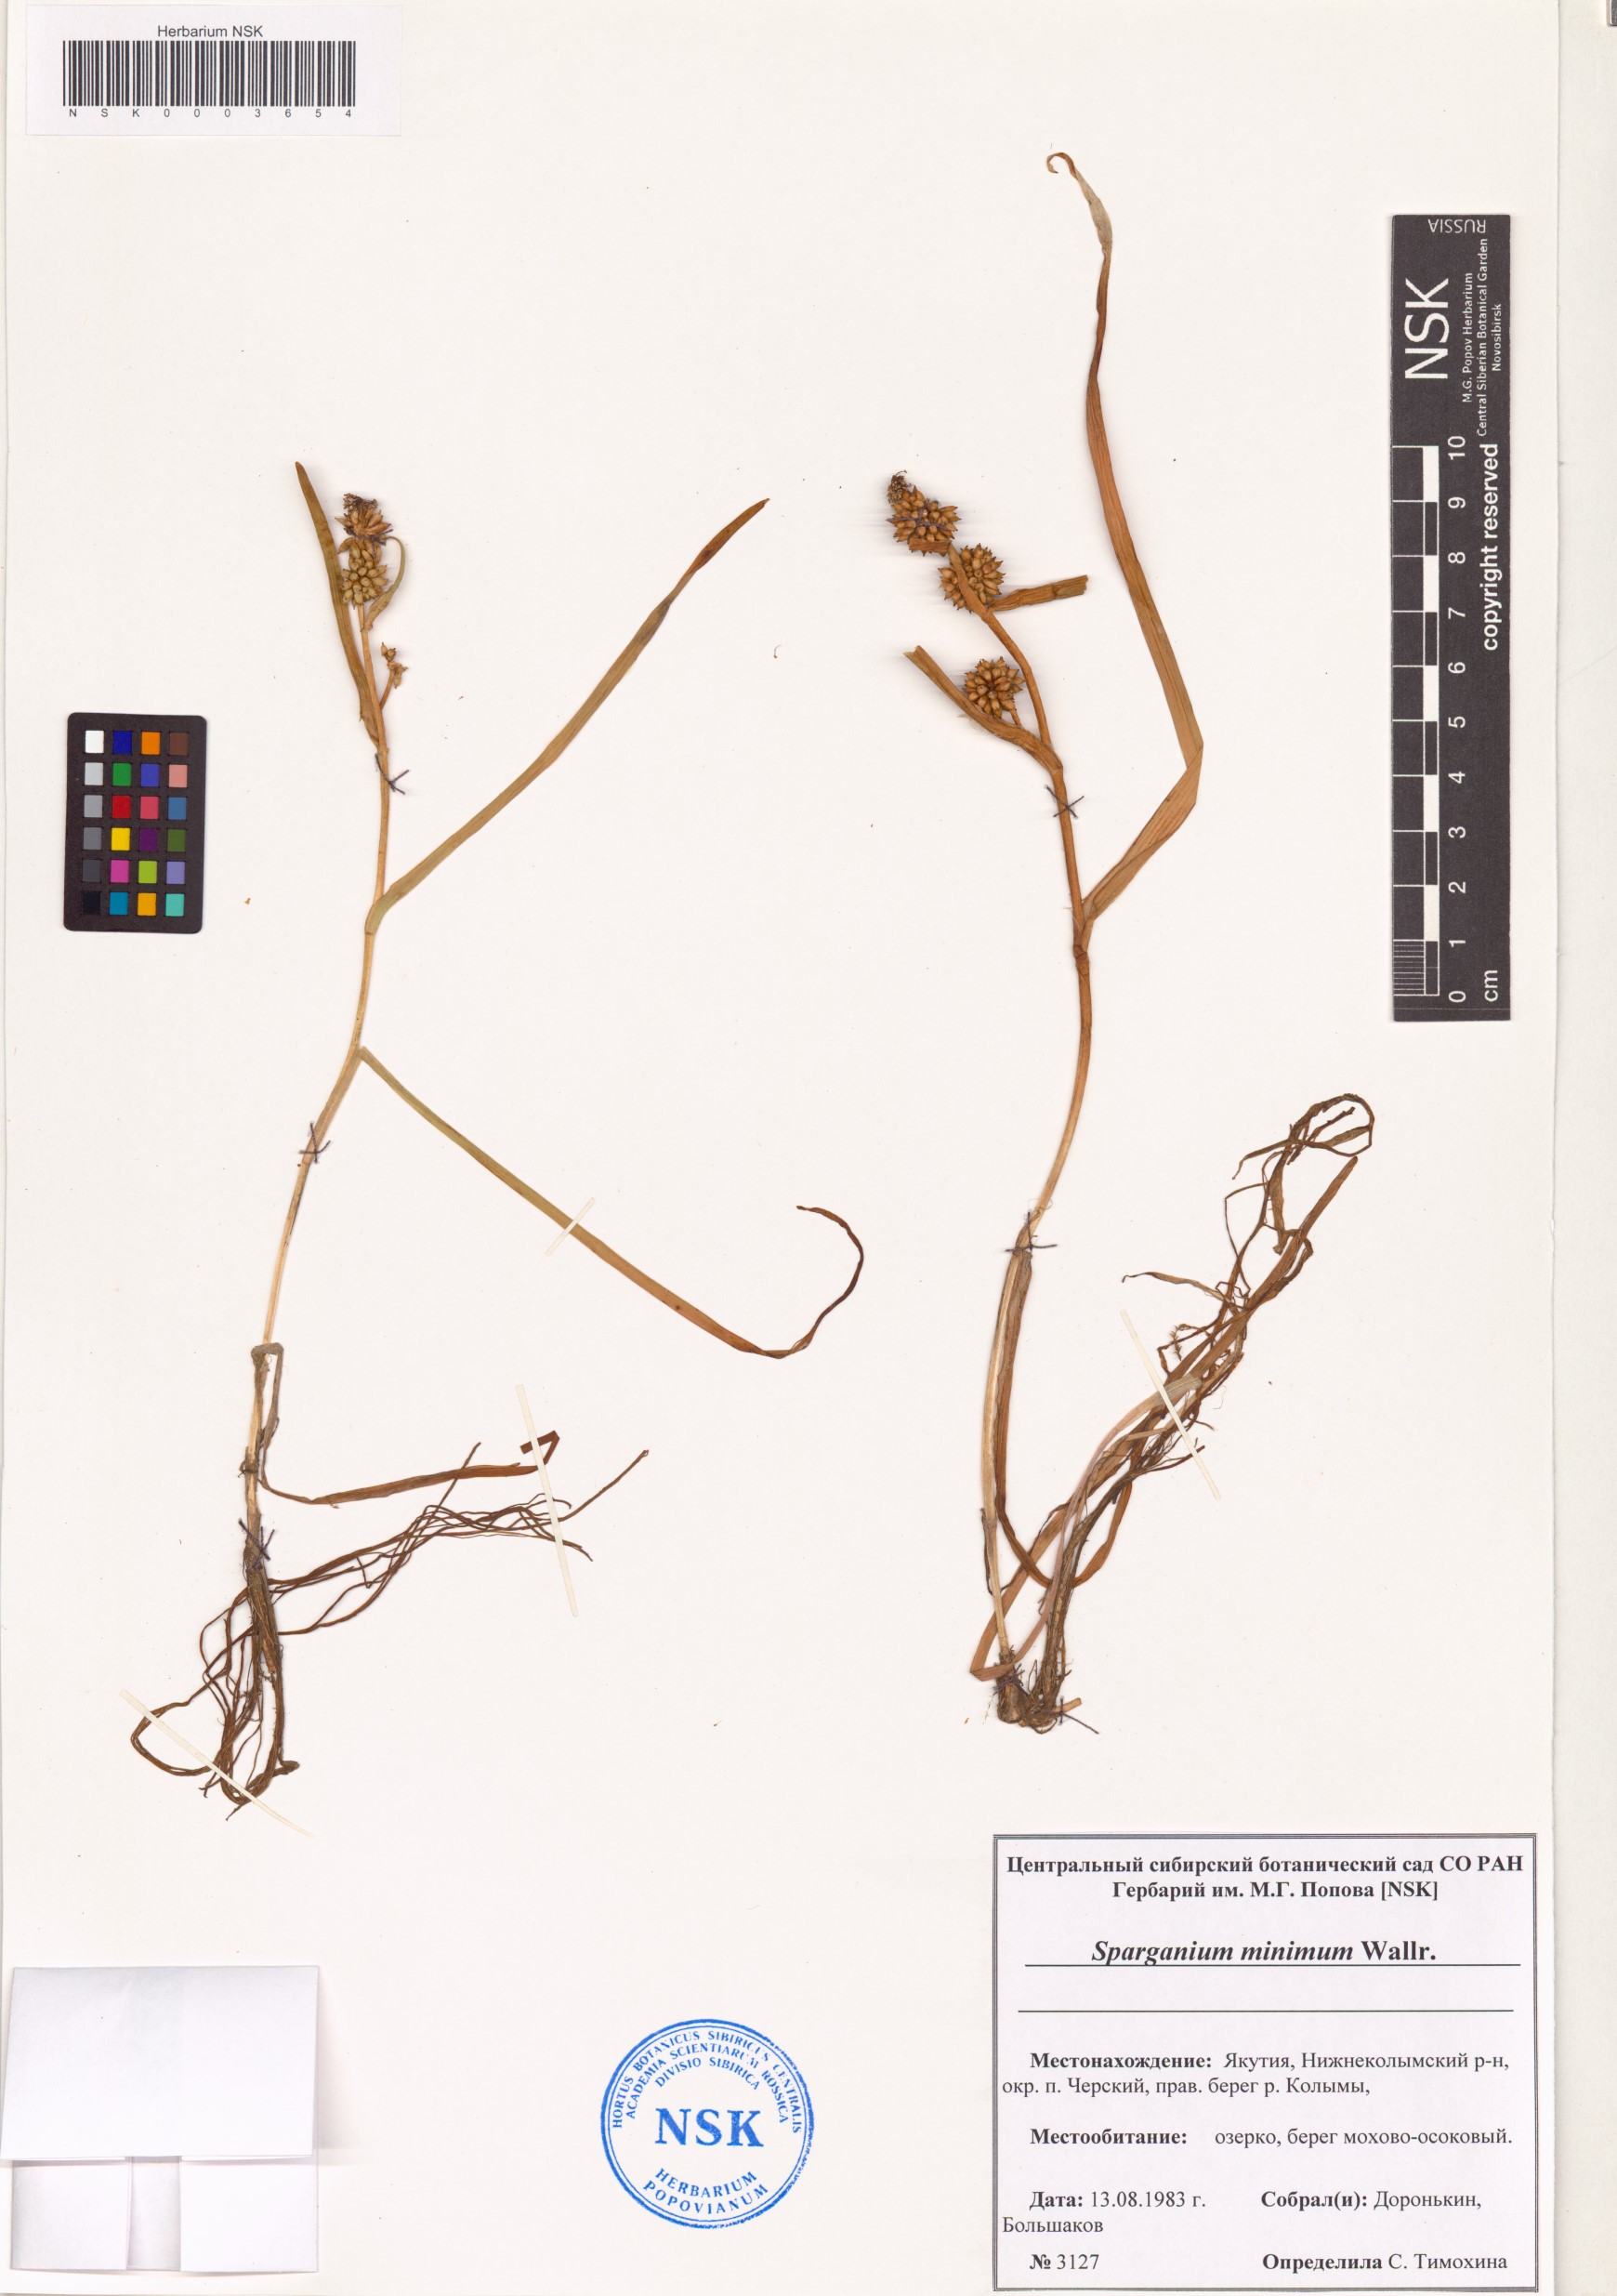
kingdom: Plantae
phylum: Tracheophyta
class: Liliopsida
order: Poales
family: Typhaceae
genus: Sparganium
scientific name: Sparganium natans
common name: Least bur-reed
